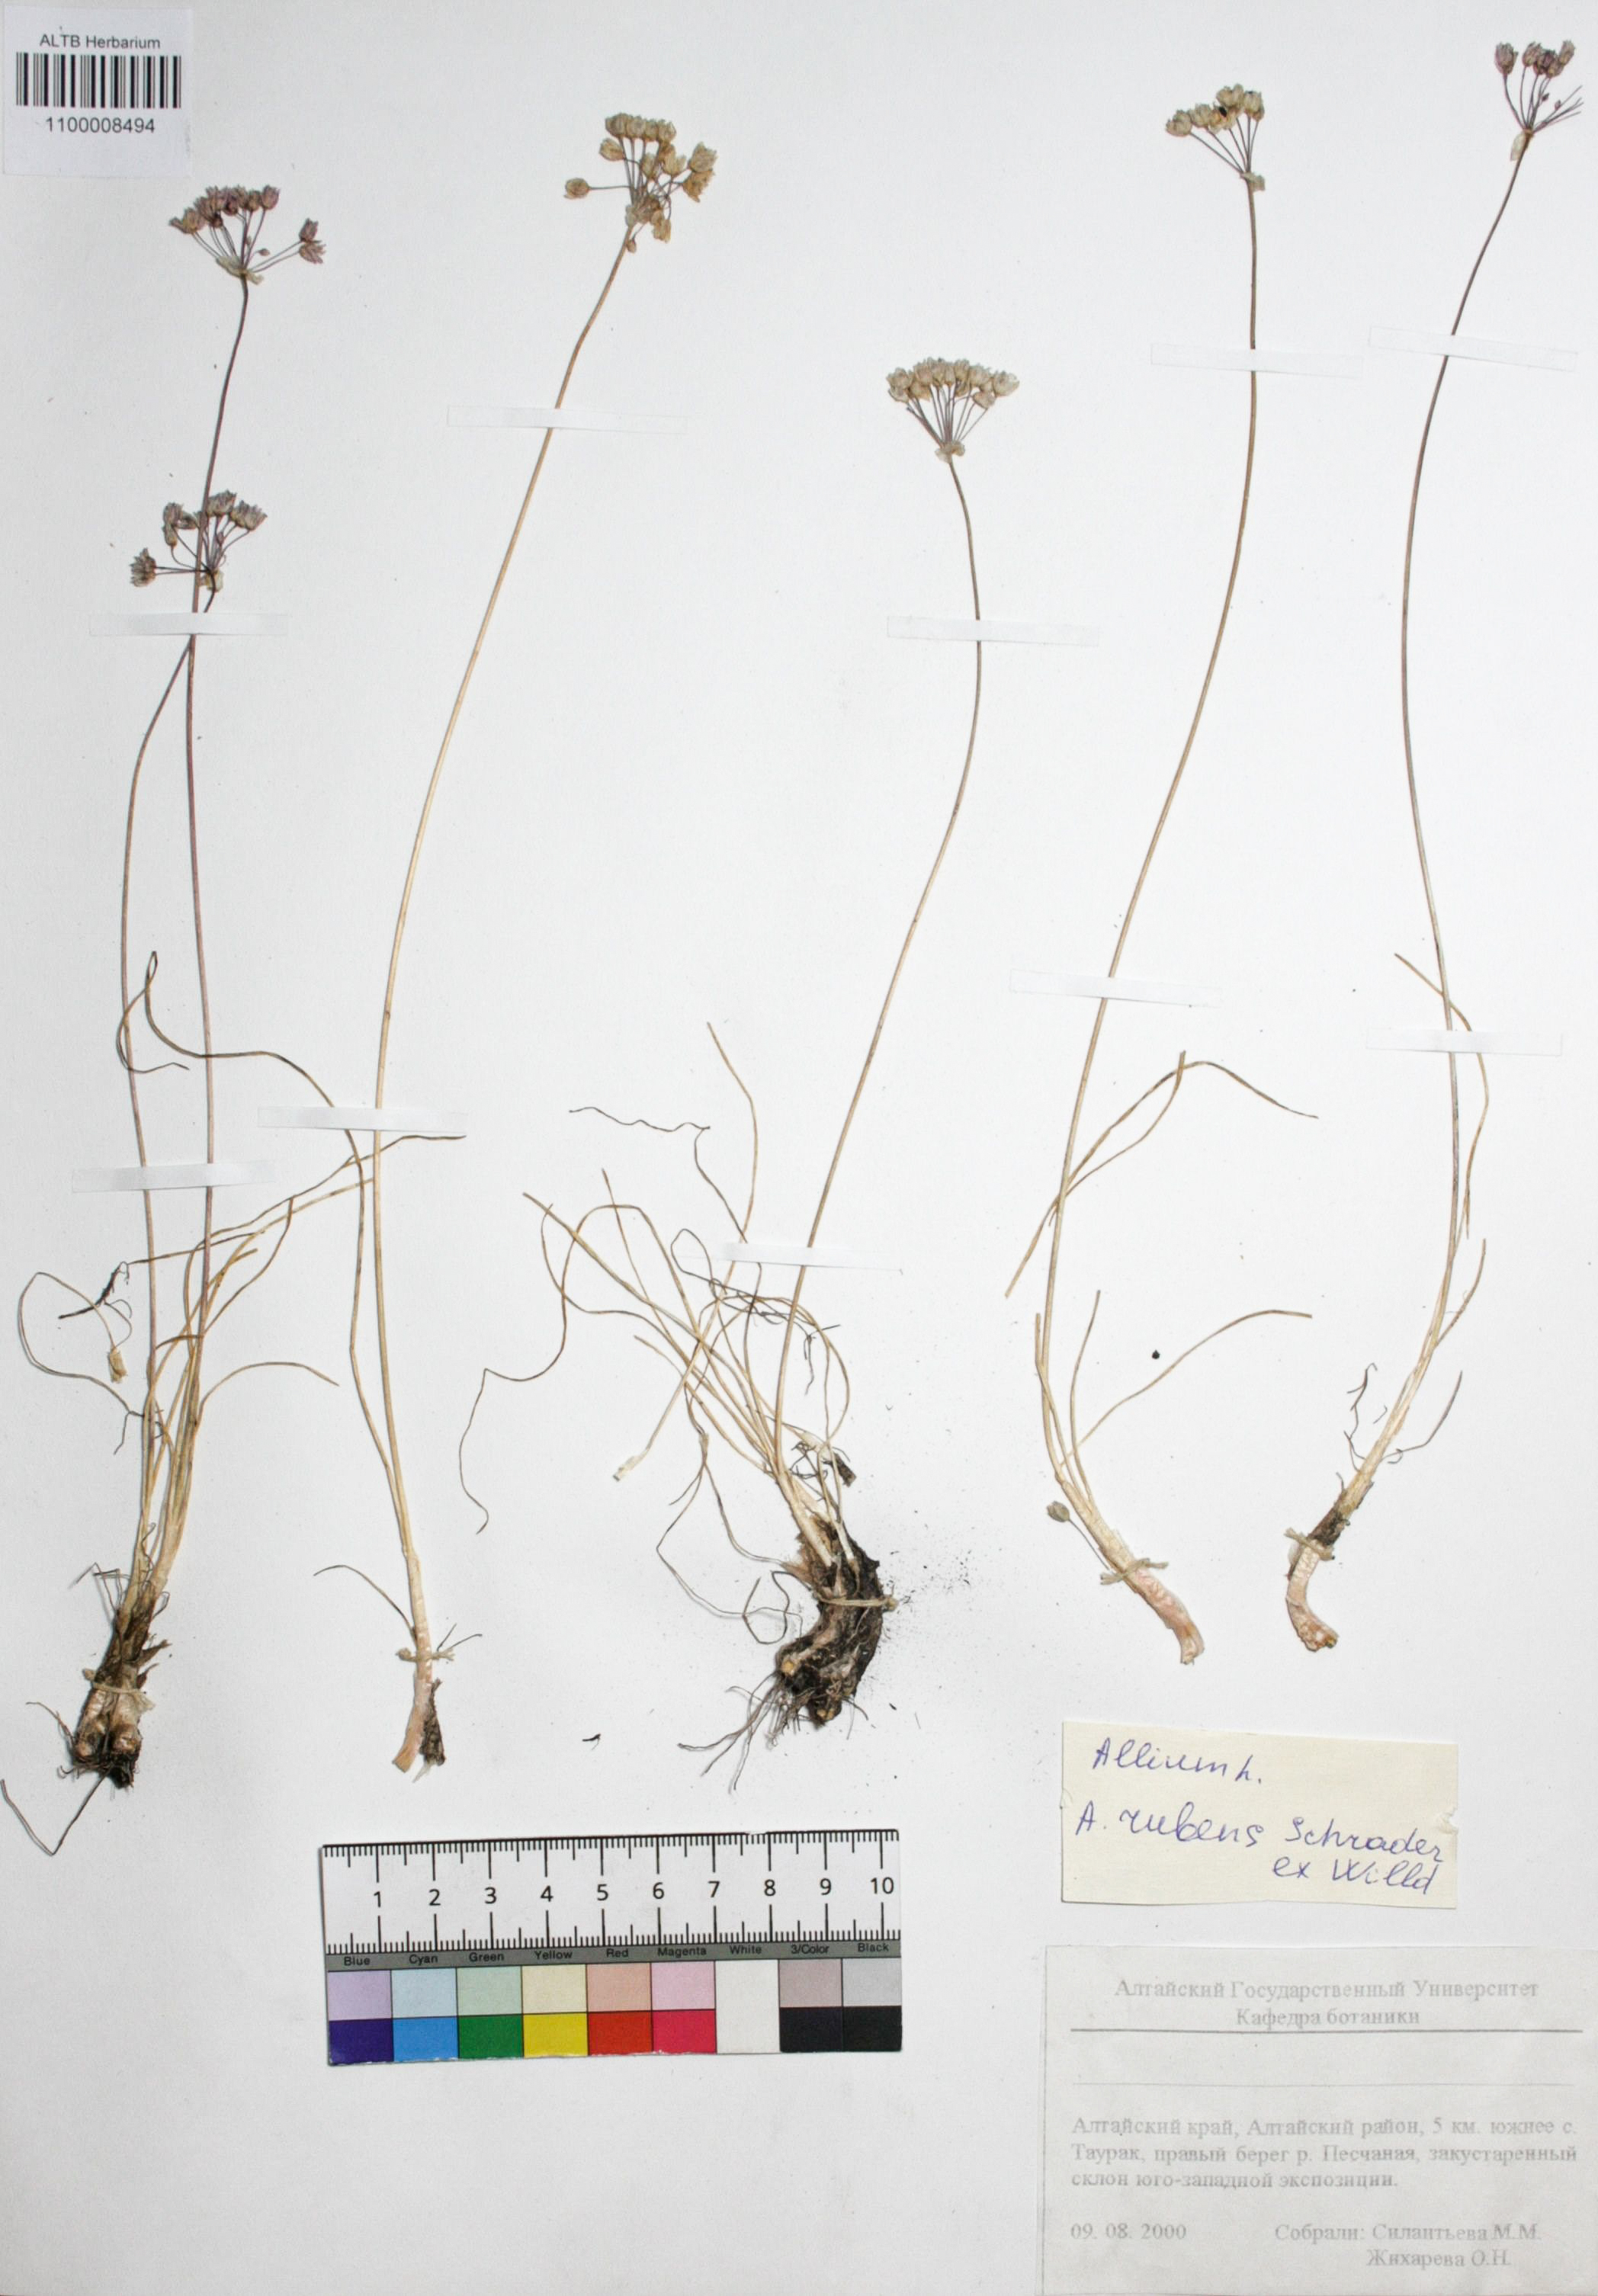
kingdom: Plantae
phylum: Tracheophyta
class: Liliopsida
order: Asparagales
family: Amaryllidaceae
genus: Allium
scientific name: Allium rubens
